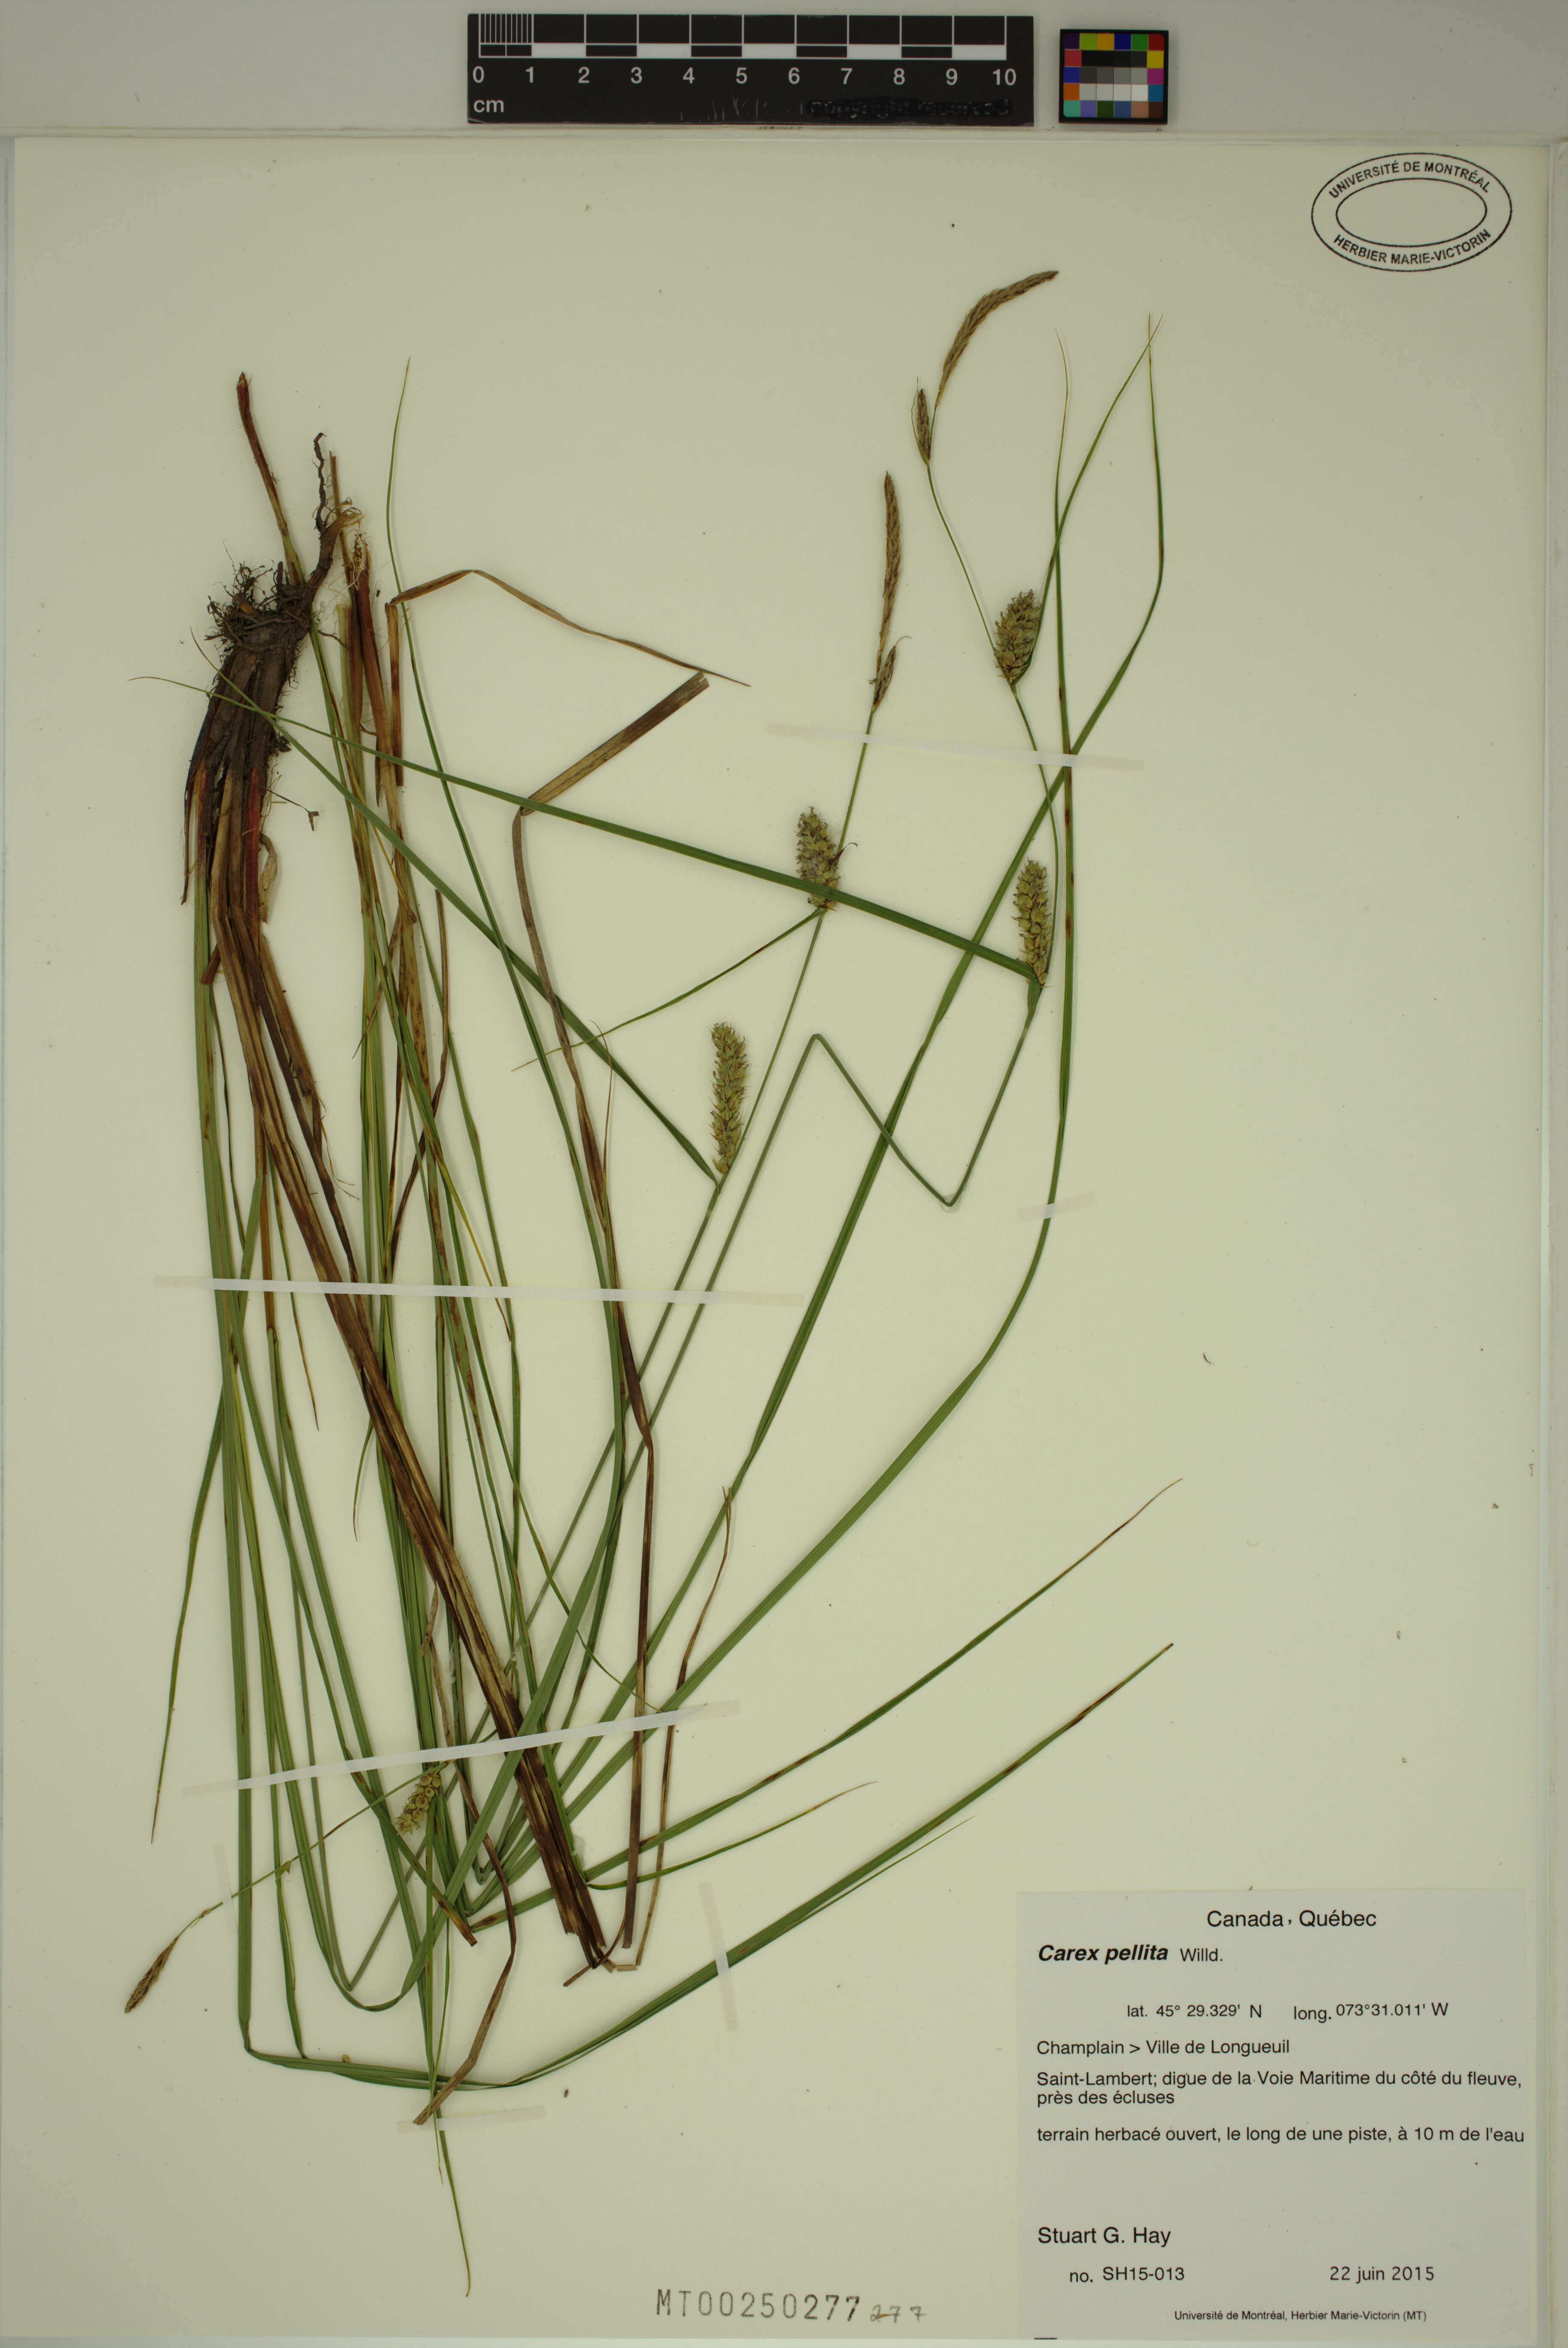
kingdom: Plantae
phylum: Tracheophyta
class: Liliopsida
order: Poales
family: Cyperaceae
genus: Carex
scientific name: Carex pellita
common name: Woolly sedge
